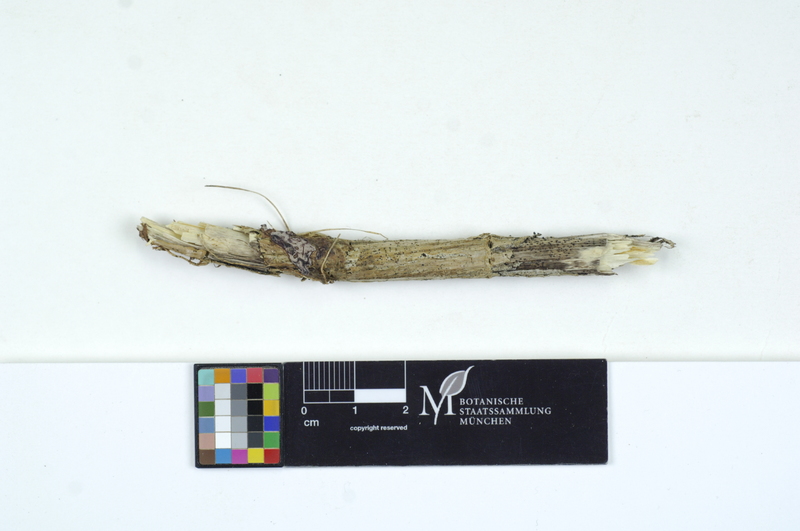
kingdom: Plantae
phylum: Tracheophyta
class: Magnoliopsida
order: Rosales
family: Urticaceae
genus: Urtica
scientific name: Urtica
